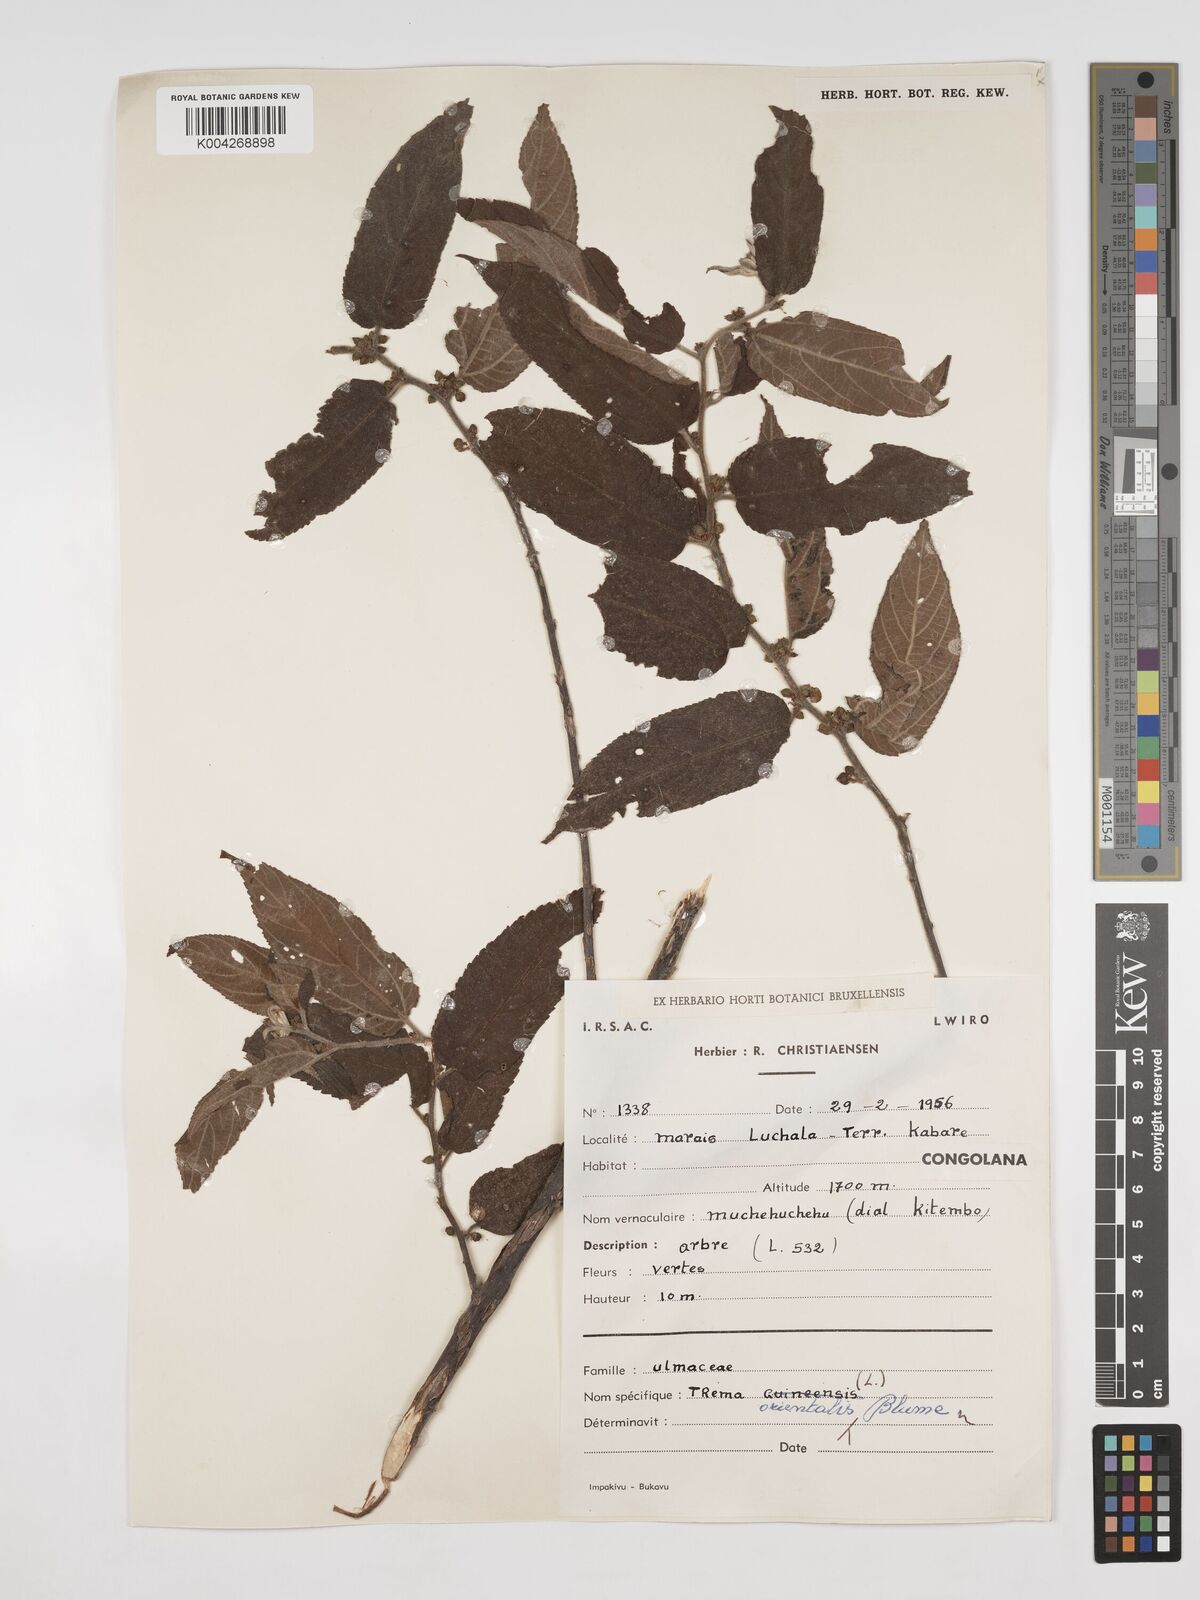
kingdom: Plantae
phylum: Tracheophyta
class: Magnoliopsida
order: Rosales
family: Cannabaceae
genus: Trema
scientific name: Trema orientale
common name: Indian charcoal tree
